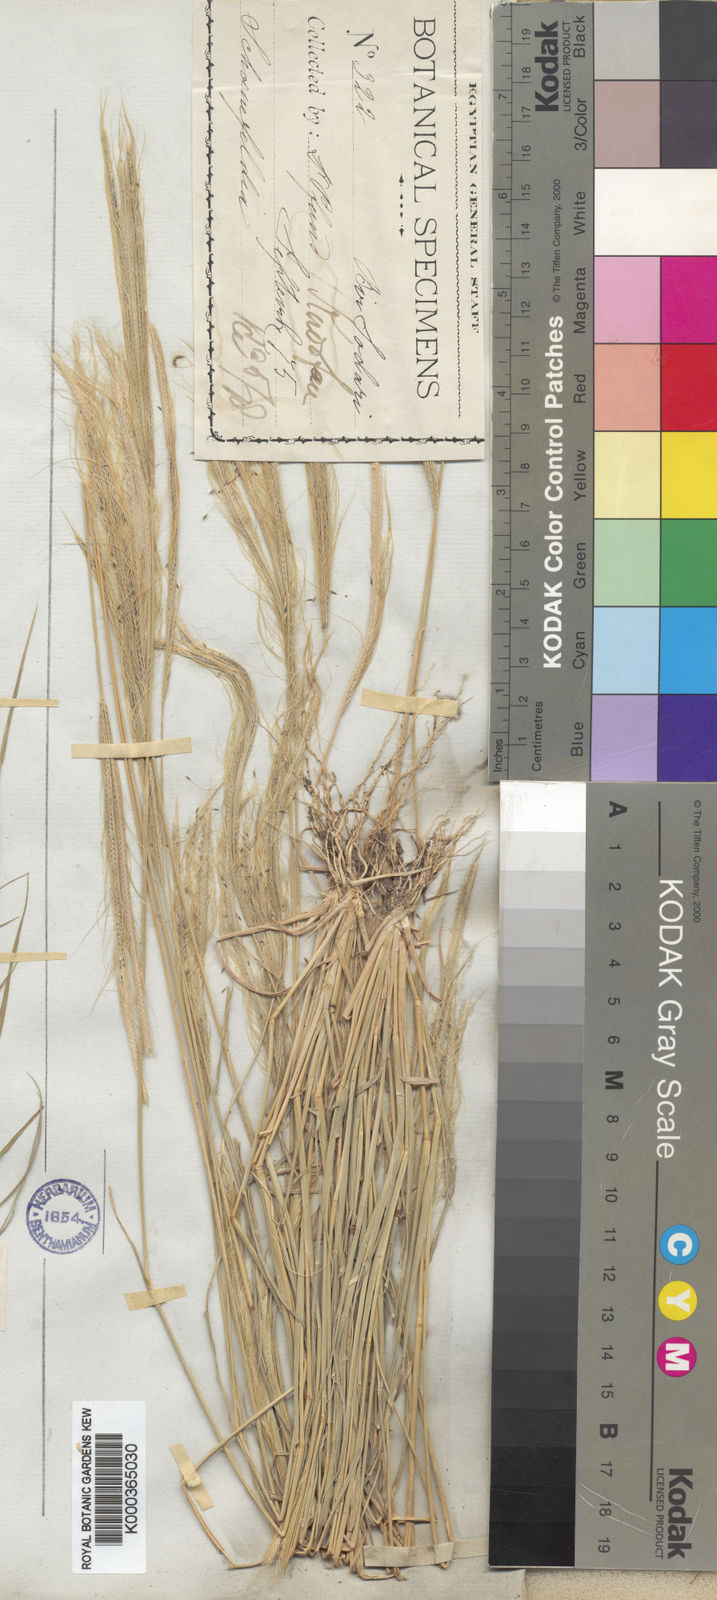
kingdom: Plantae
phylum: Tracheophyta
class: Liliopsida
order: Poales
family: Poaceae
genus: Schoenefeldia
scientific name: Schoenefeldia
